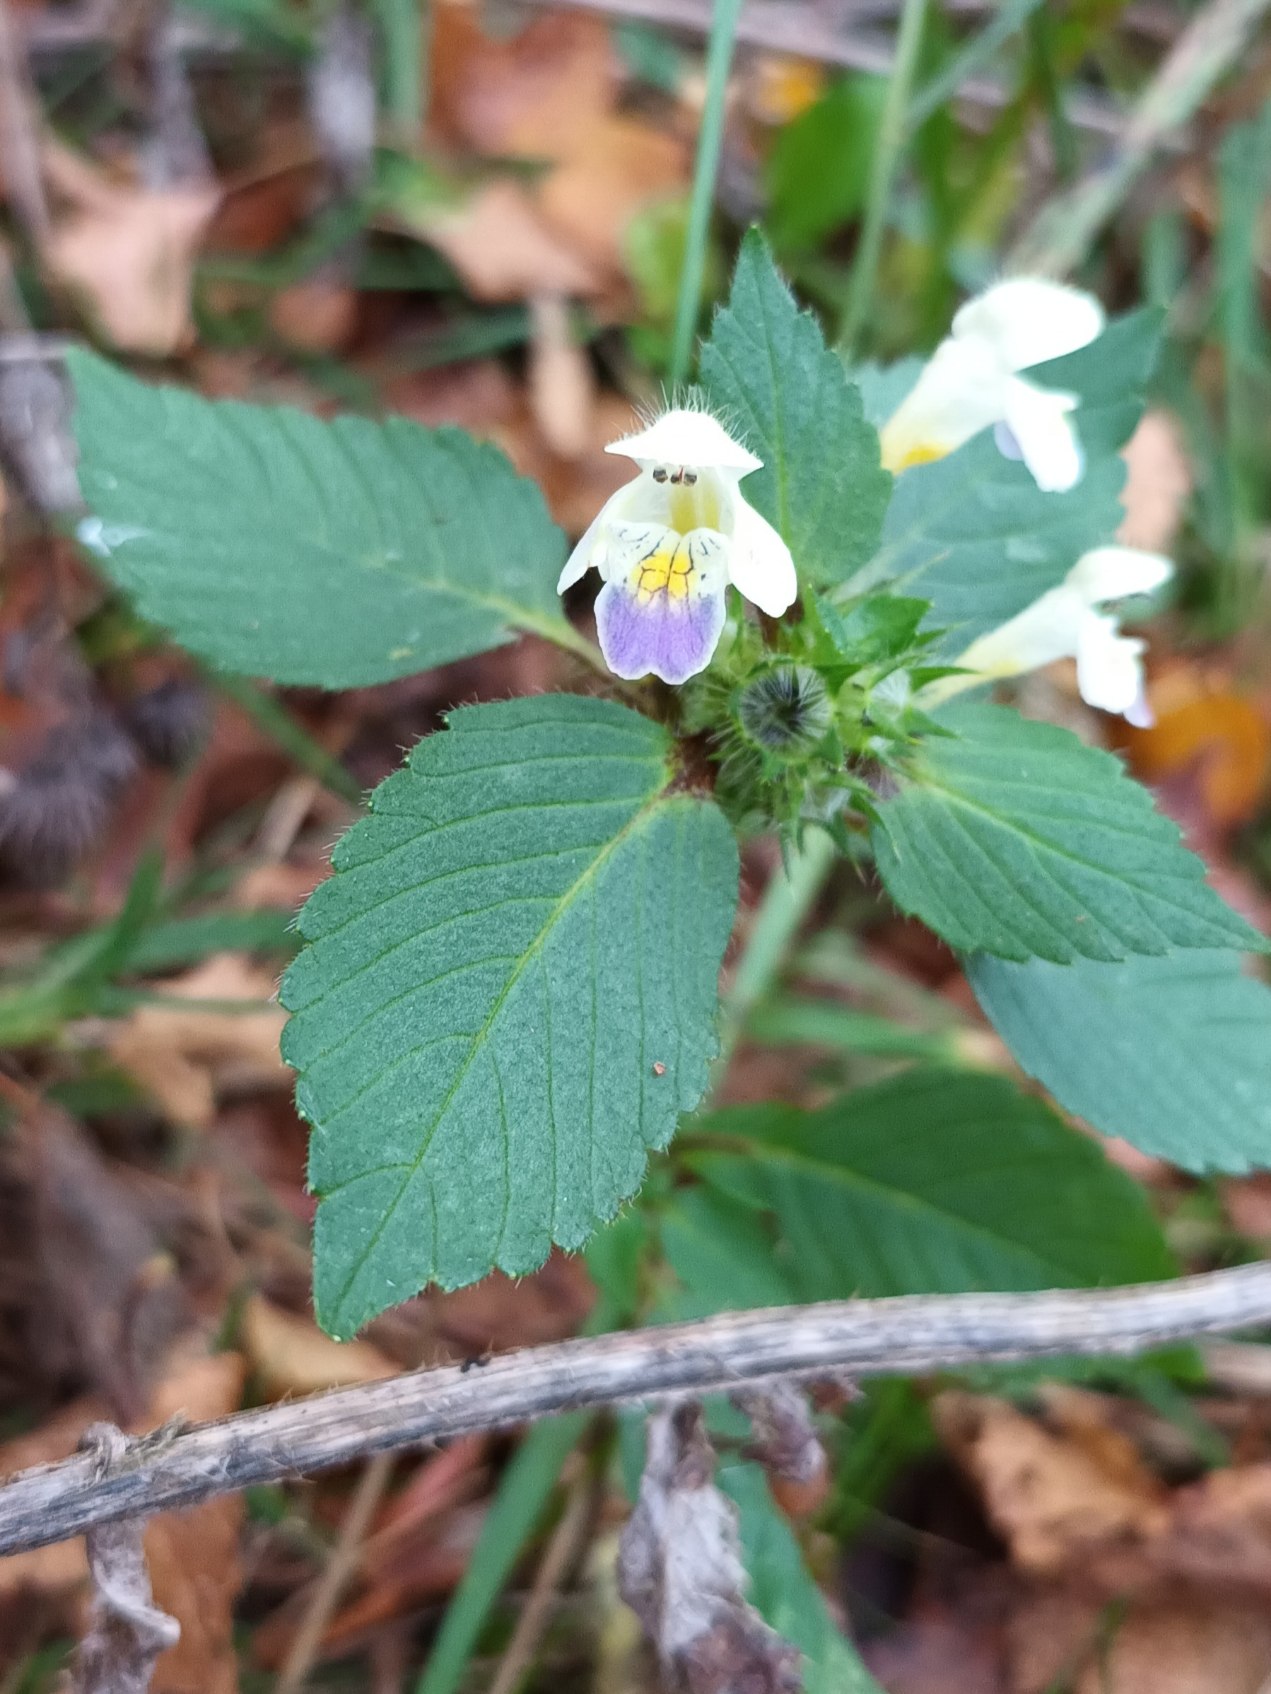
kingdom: Plantae
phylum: Tracheophyta
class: Magnoliopsida
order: Lamiales
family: Lamiaceae
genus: Galeopsis
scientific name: Galeopsis speciosa
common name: Hamp-hanekro
